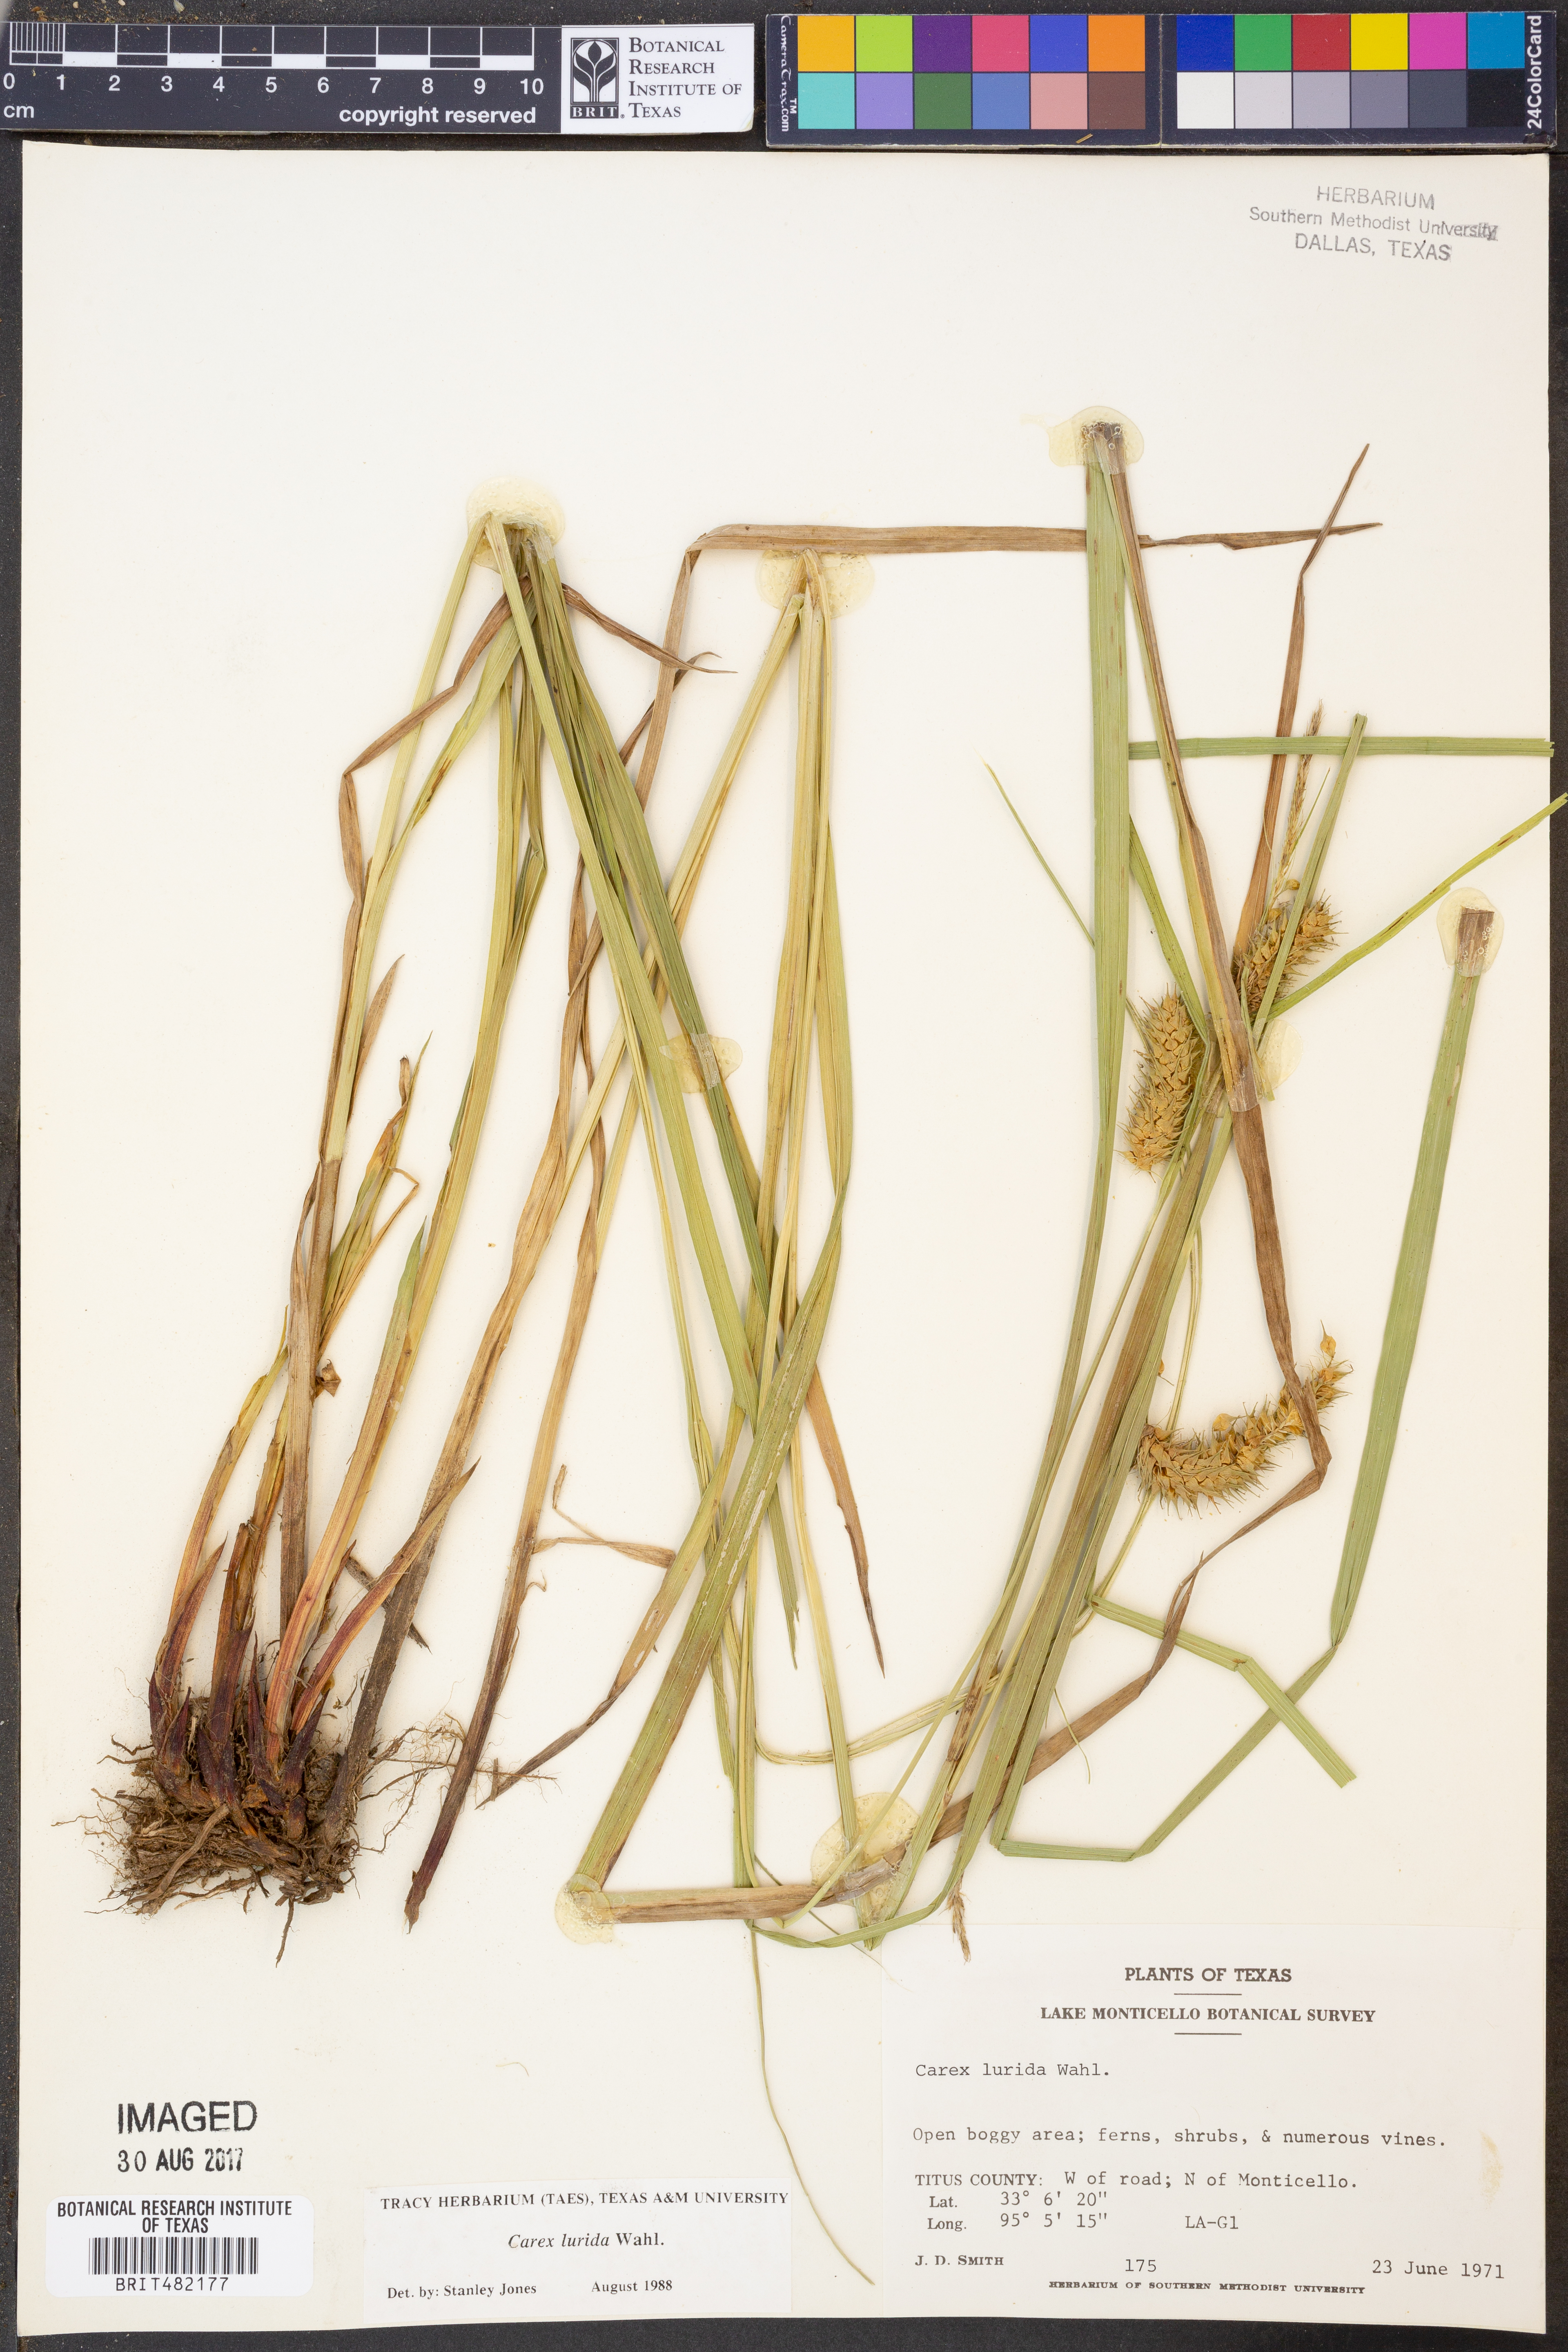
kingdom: Plantae
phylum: Tracheophyta
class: Liliopsida
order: Poales
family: Cyperaceae
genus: Carex
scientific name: Carex lurida
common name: Sallow sedge
